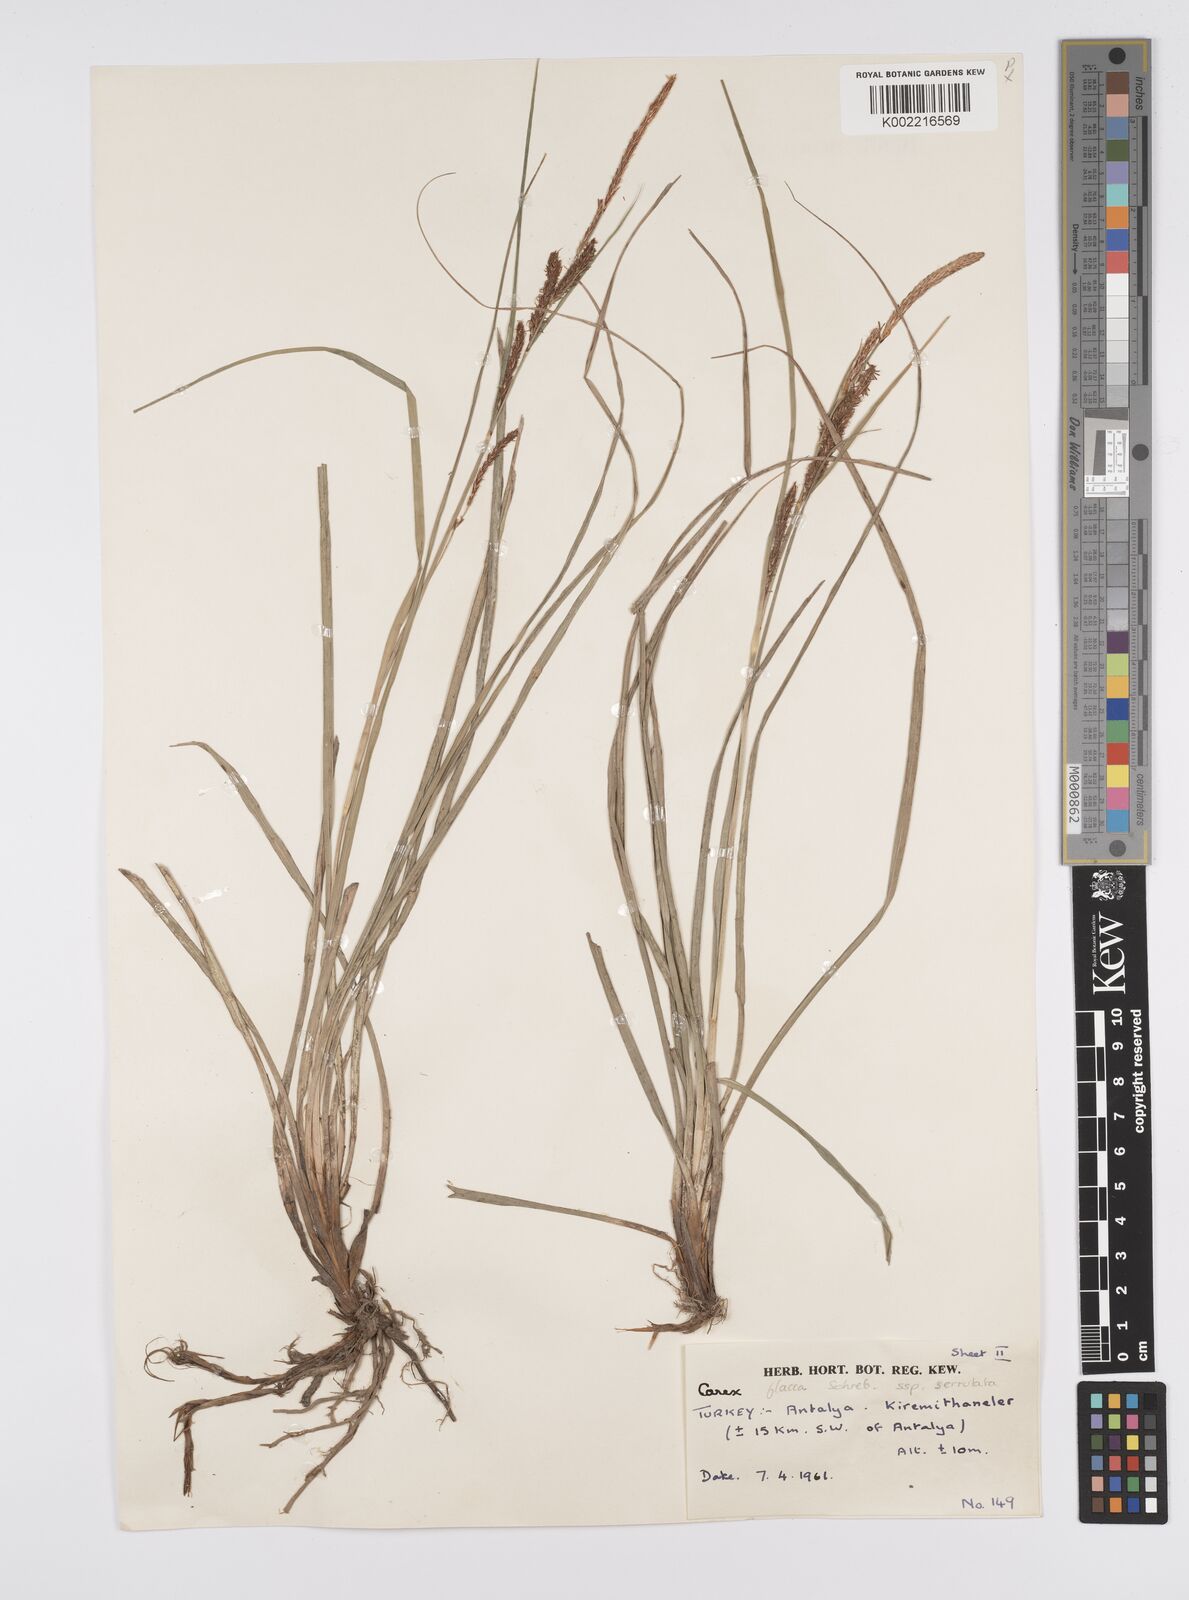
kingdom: Plantae
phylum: Tracheophyta
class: Liliopsida
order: Poales
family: Cyperaceae
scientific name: Cyperaceae
